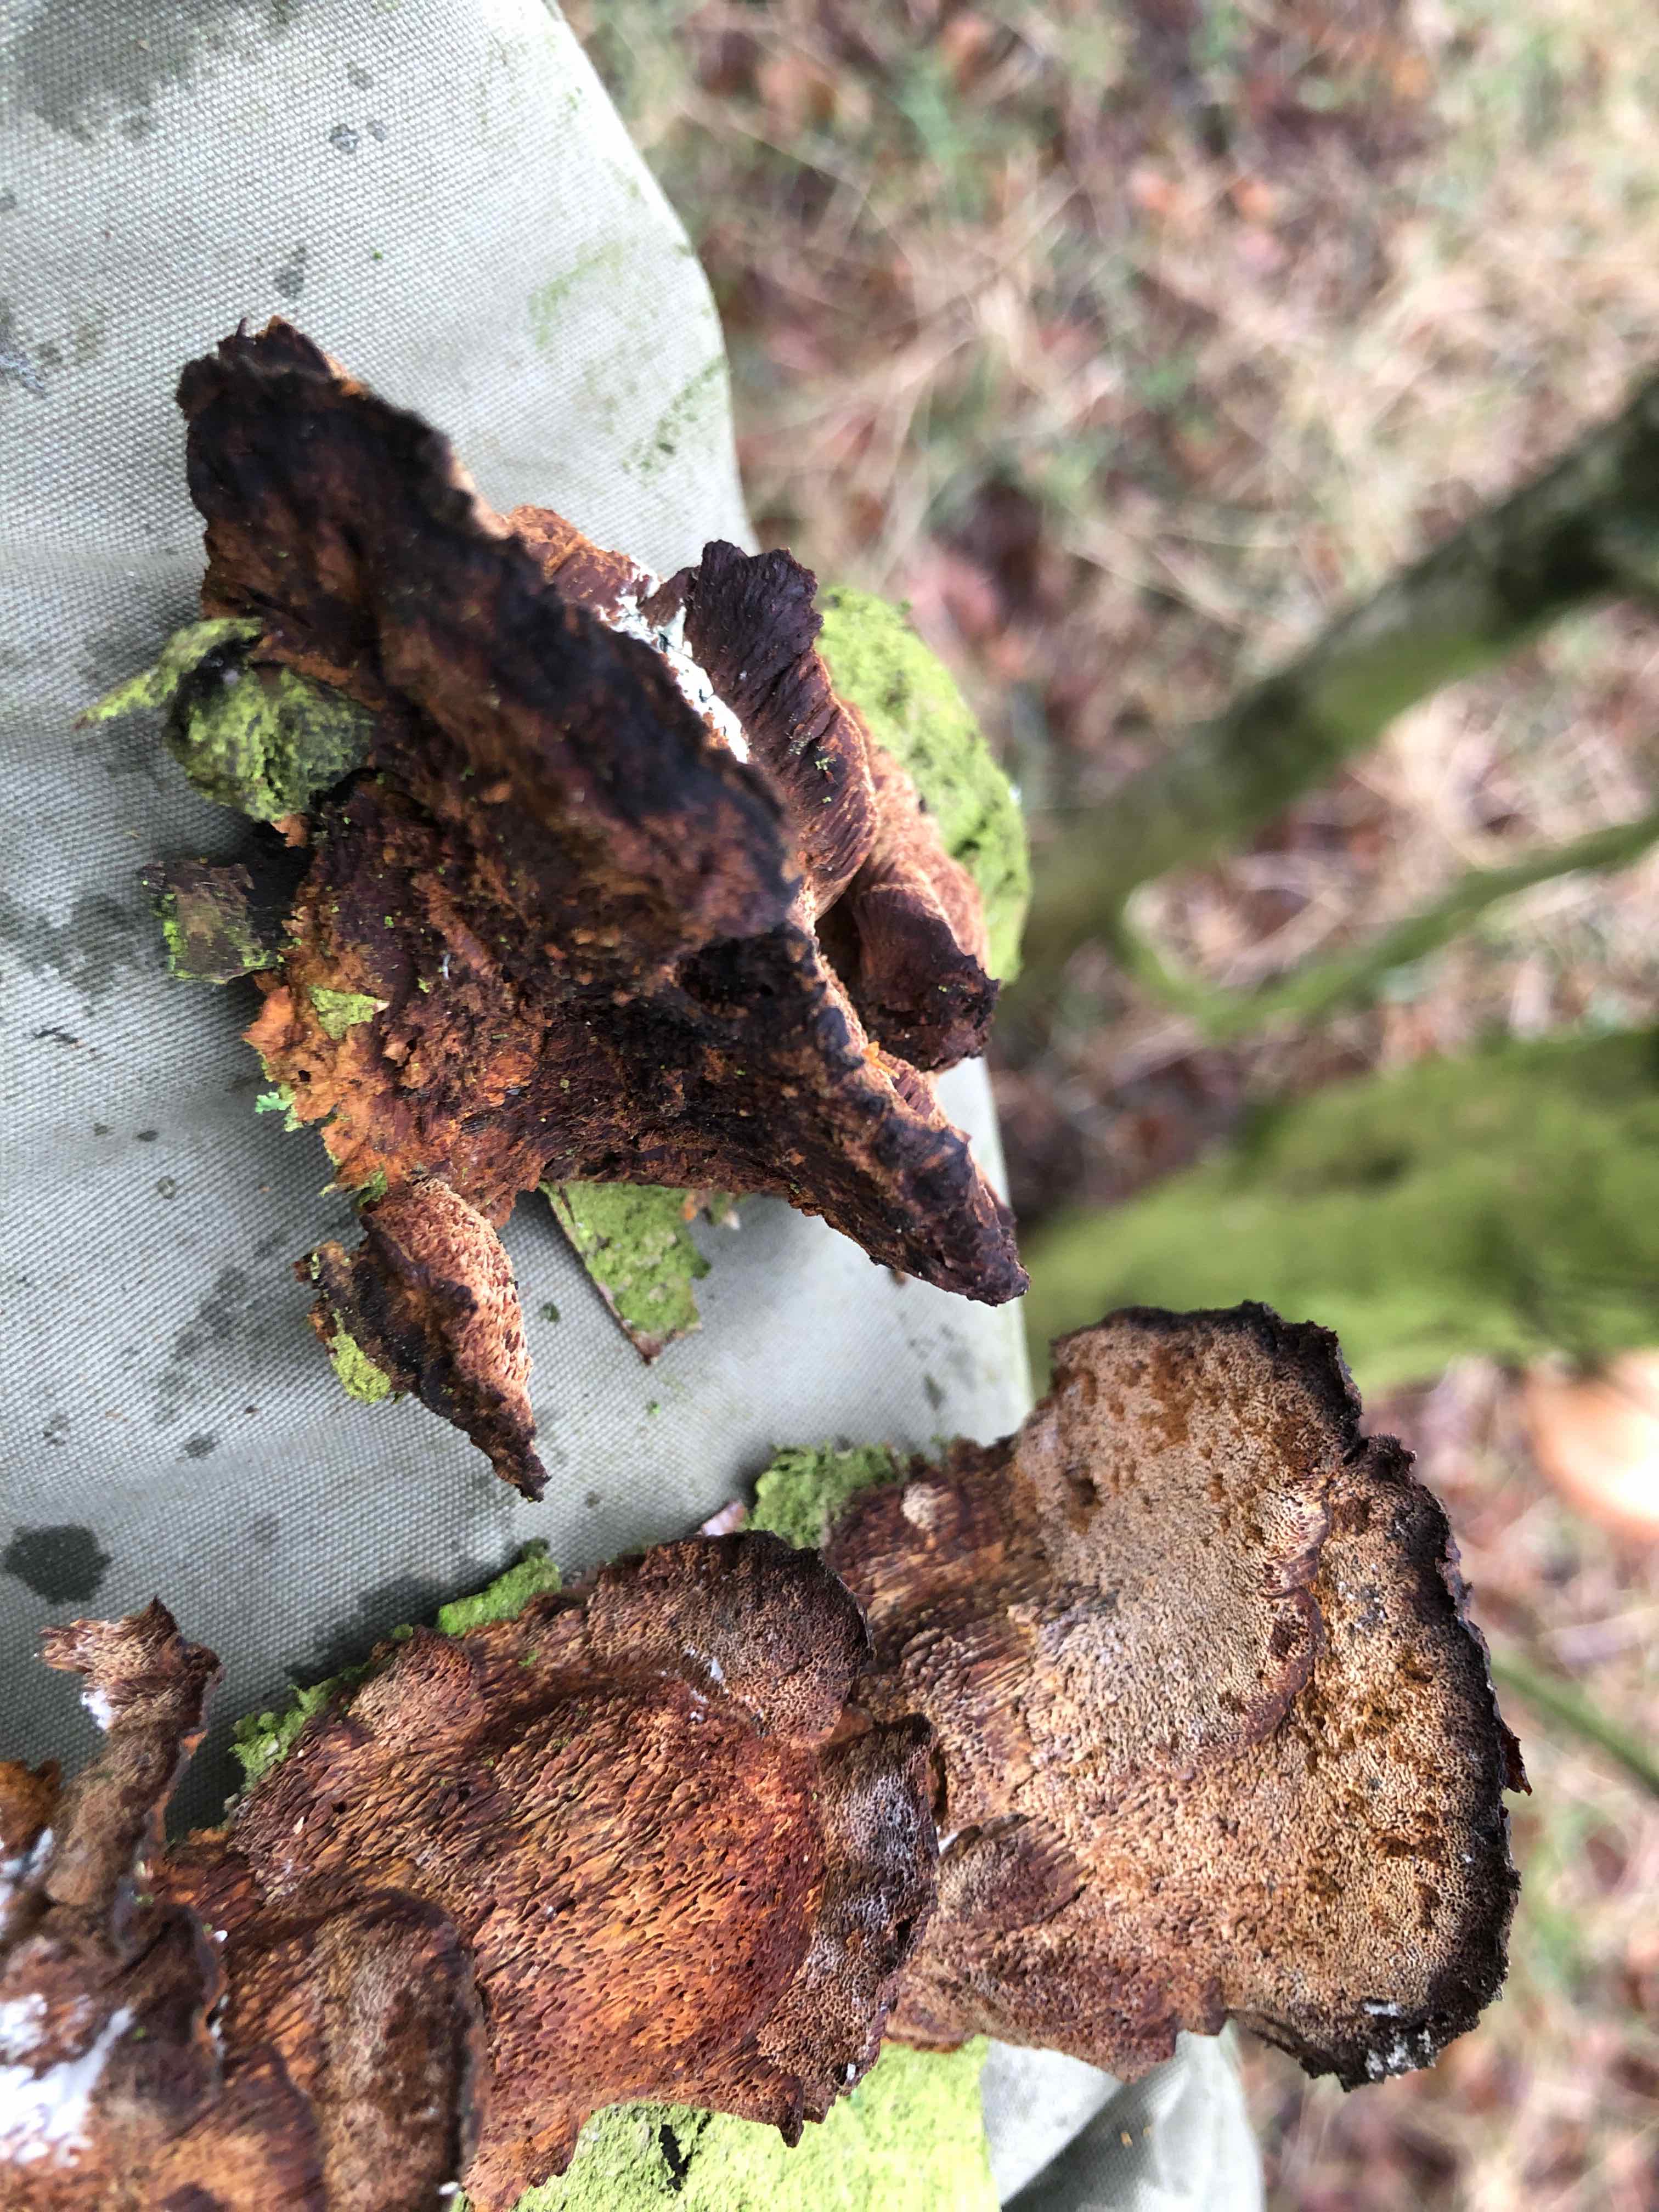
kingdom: Fungi
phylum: Basidiomycota
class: Agaricomycetes
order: Hymenochaetales
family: Hymenochaetaceae
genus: Xanthoporia
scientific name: Xanthoporia radiata
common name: elle-spejlporesvamp
